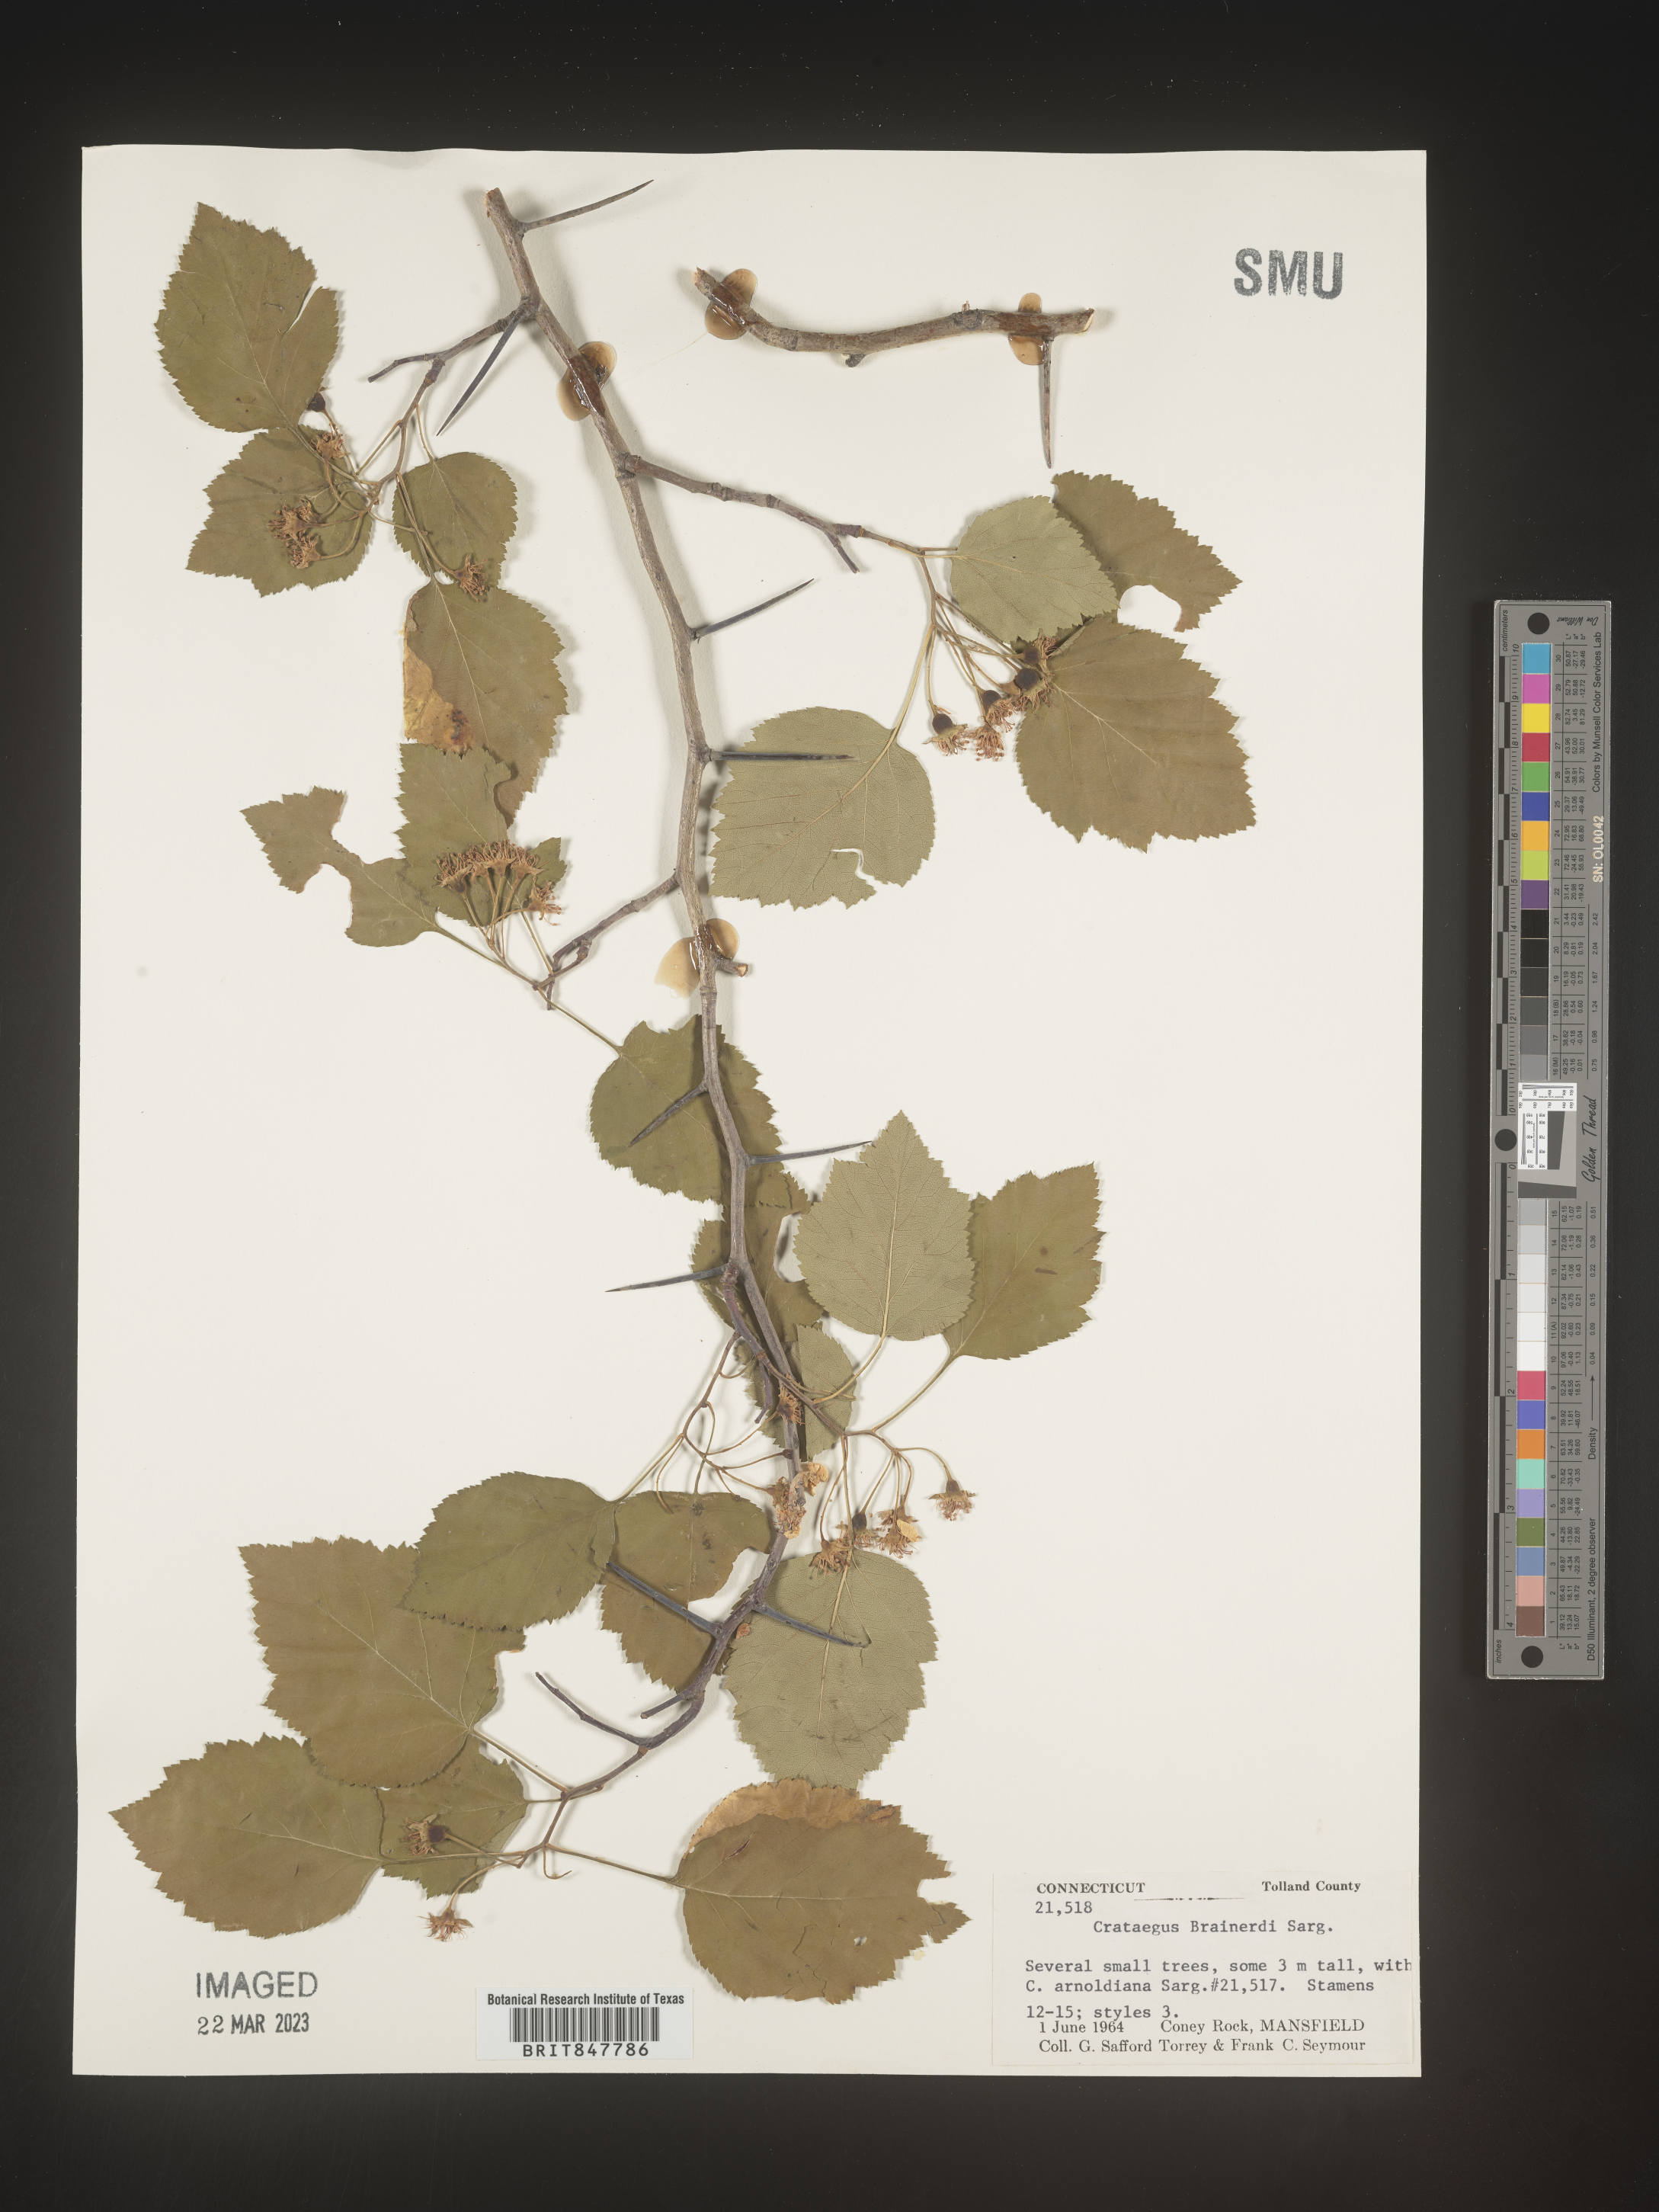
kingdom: Plantae
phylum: Tracheophyta
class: Magnoliopsida
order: Rosales
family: Rosaceae
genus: Crataegus
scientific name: Crataegus scabrida
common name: Rough hawthorn
